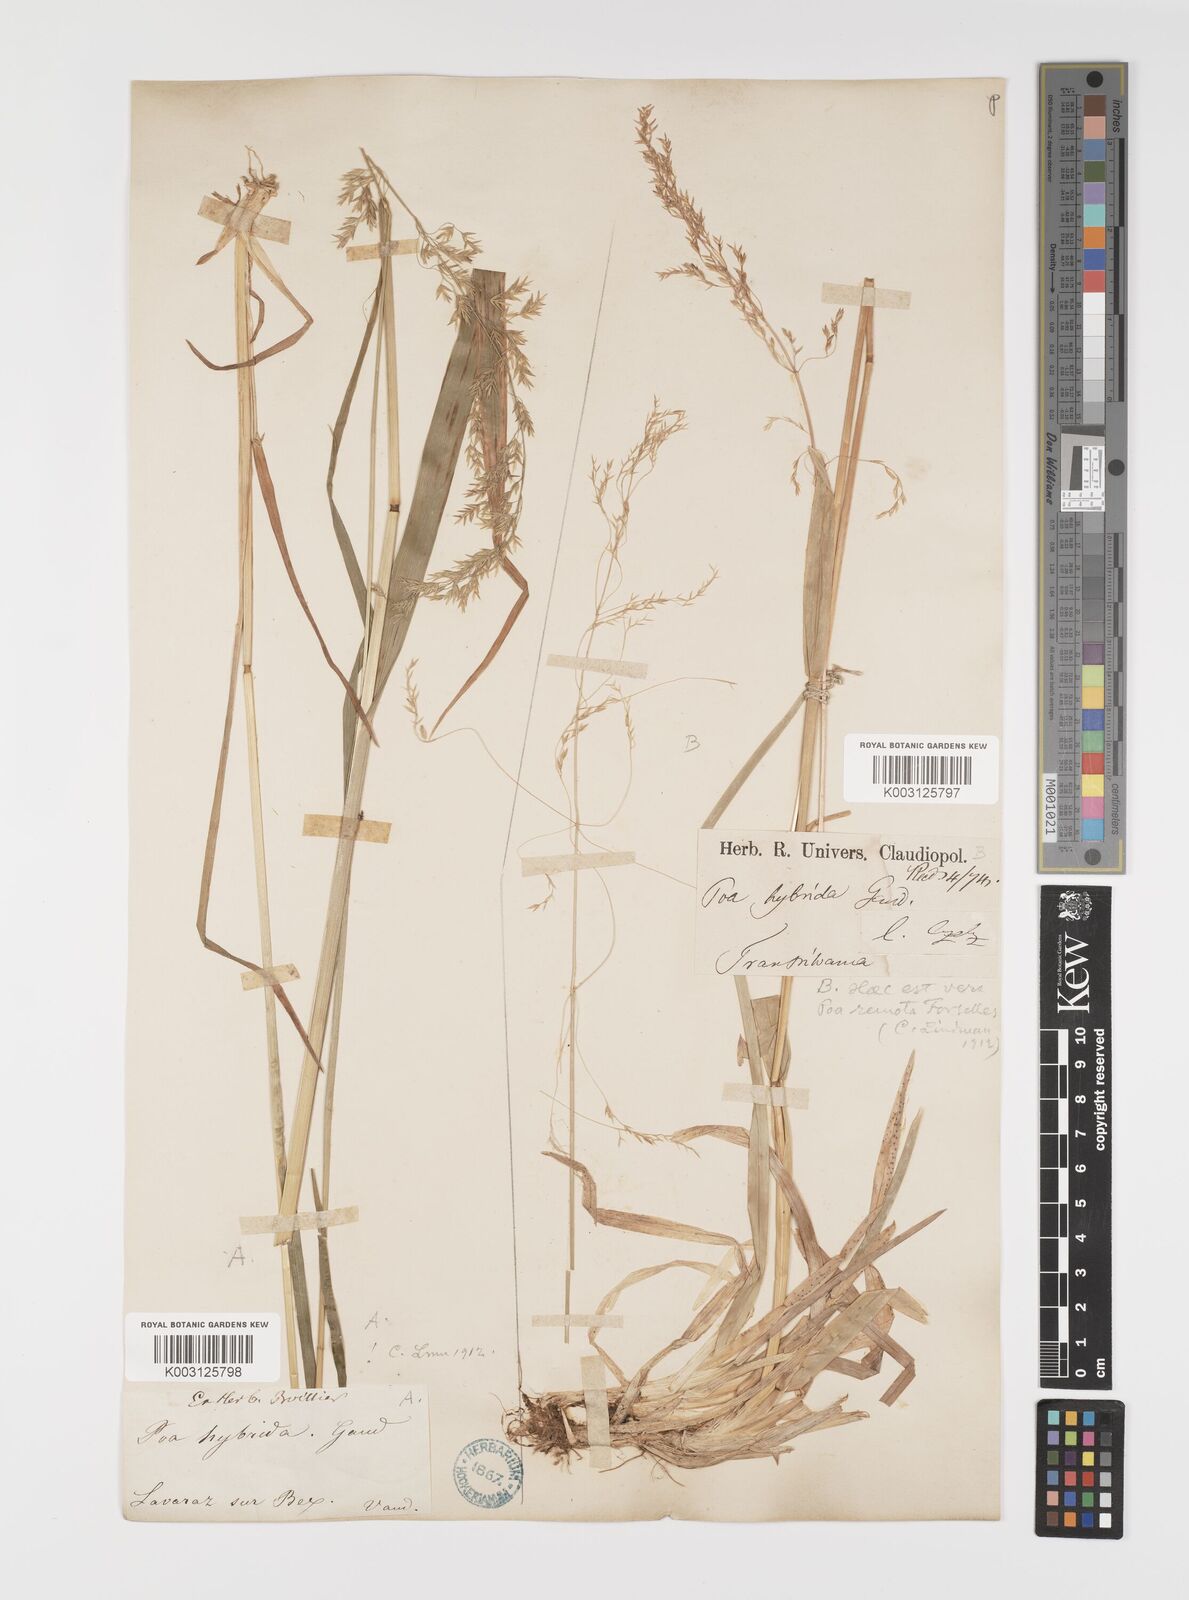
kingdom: Plantae
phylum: Tracheophyta
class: Liliopsida
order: Poales
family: Poaceae
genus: Poa
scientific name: Poa hybrida
